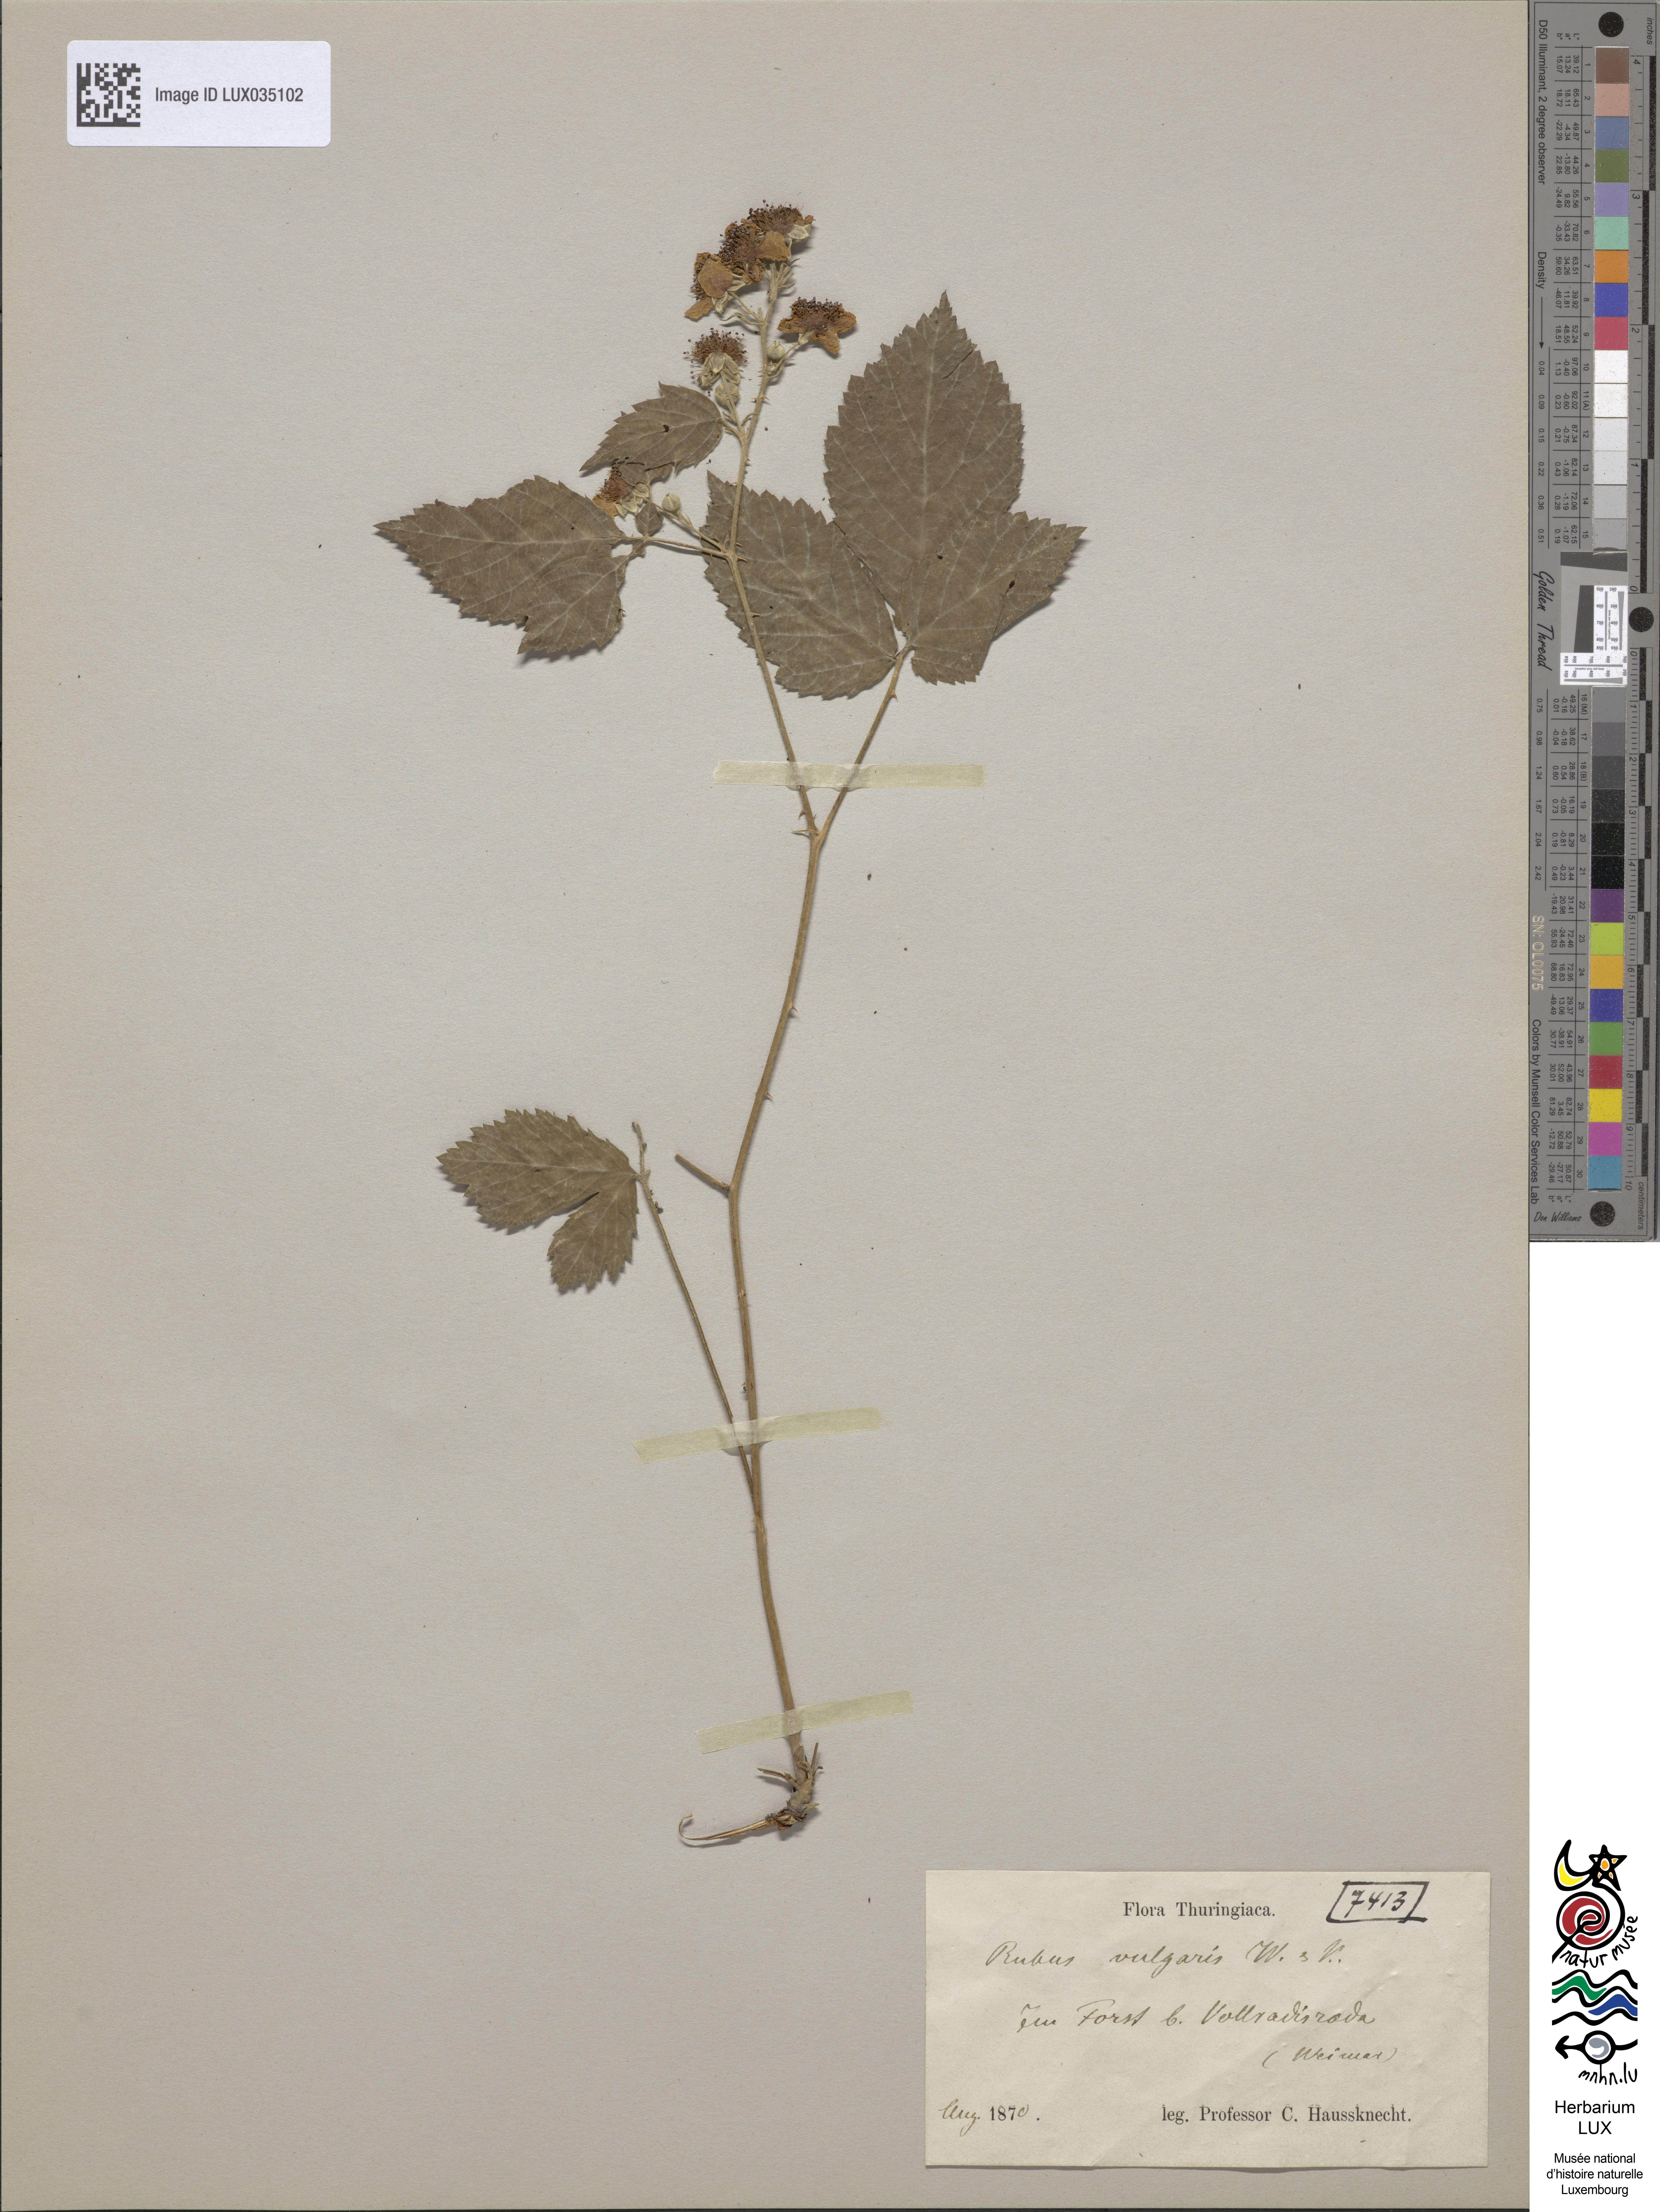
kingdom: Plantae
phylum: Tracheophyta
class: Magnoliopsida
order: Rosales
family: Rosaceae
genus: Rubus
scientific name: Rubus aschoffii
